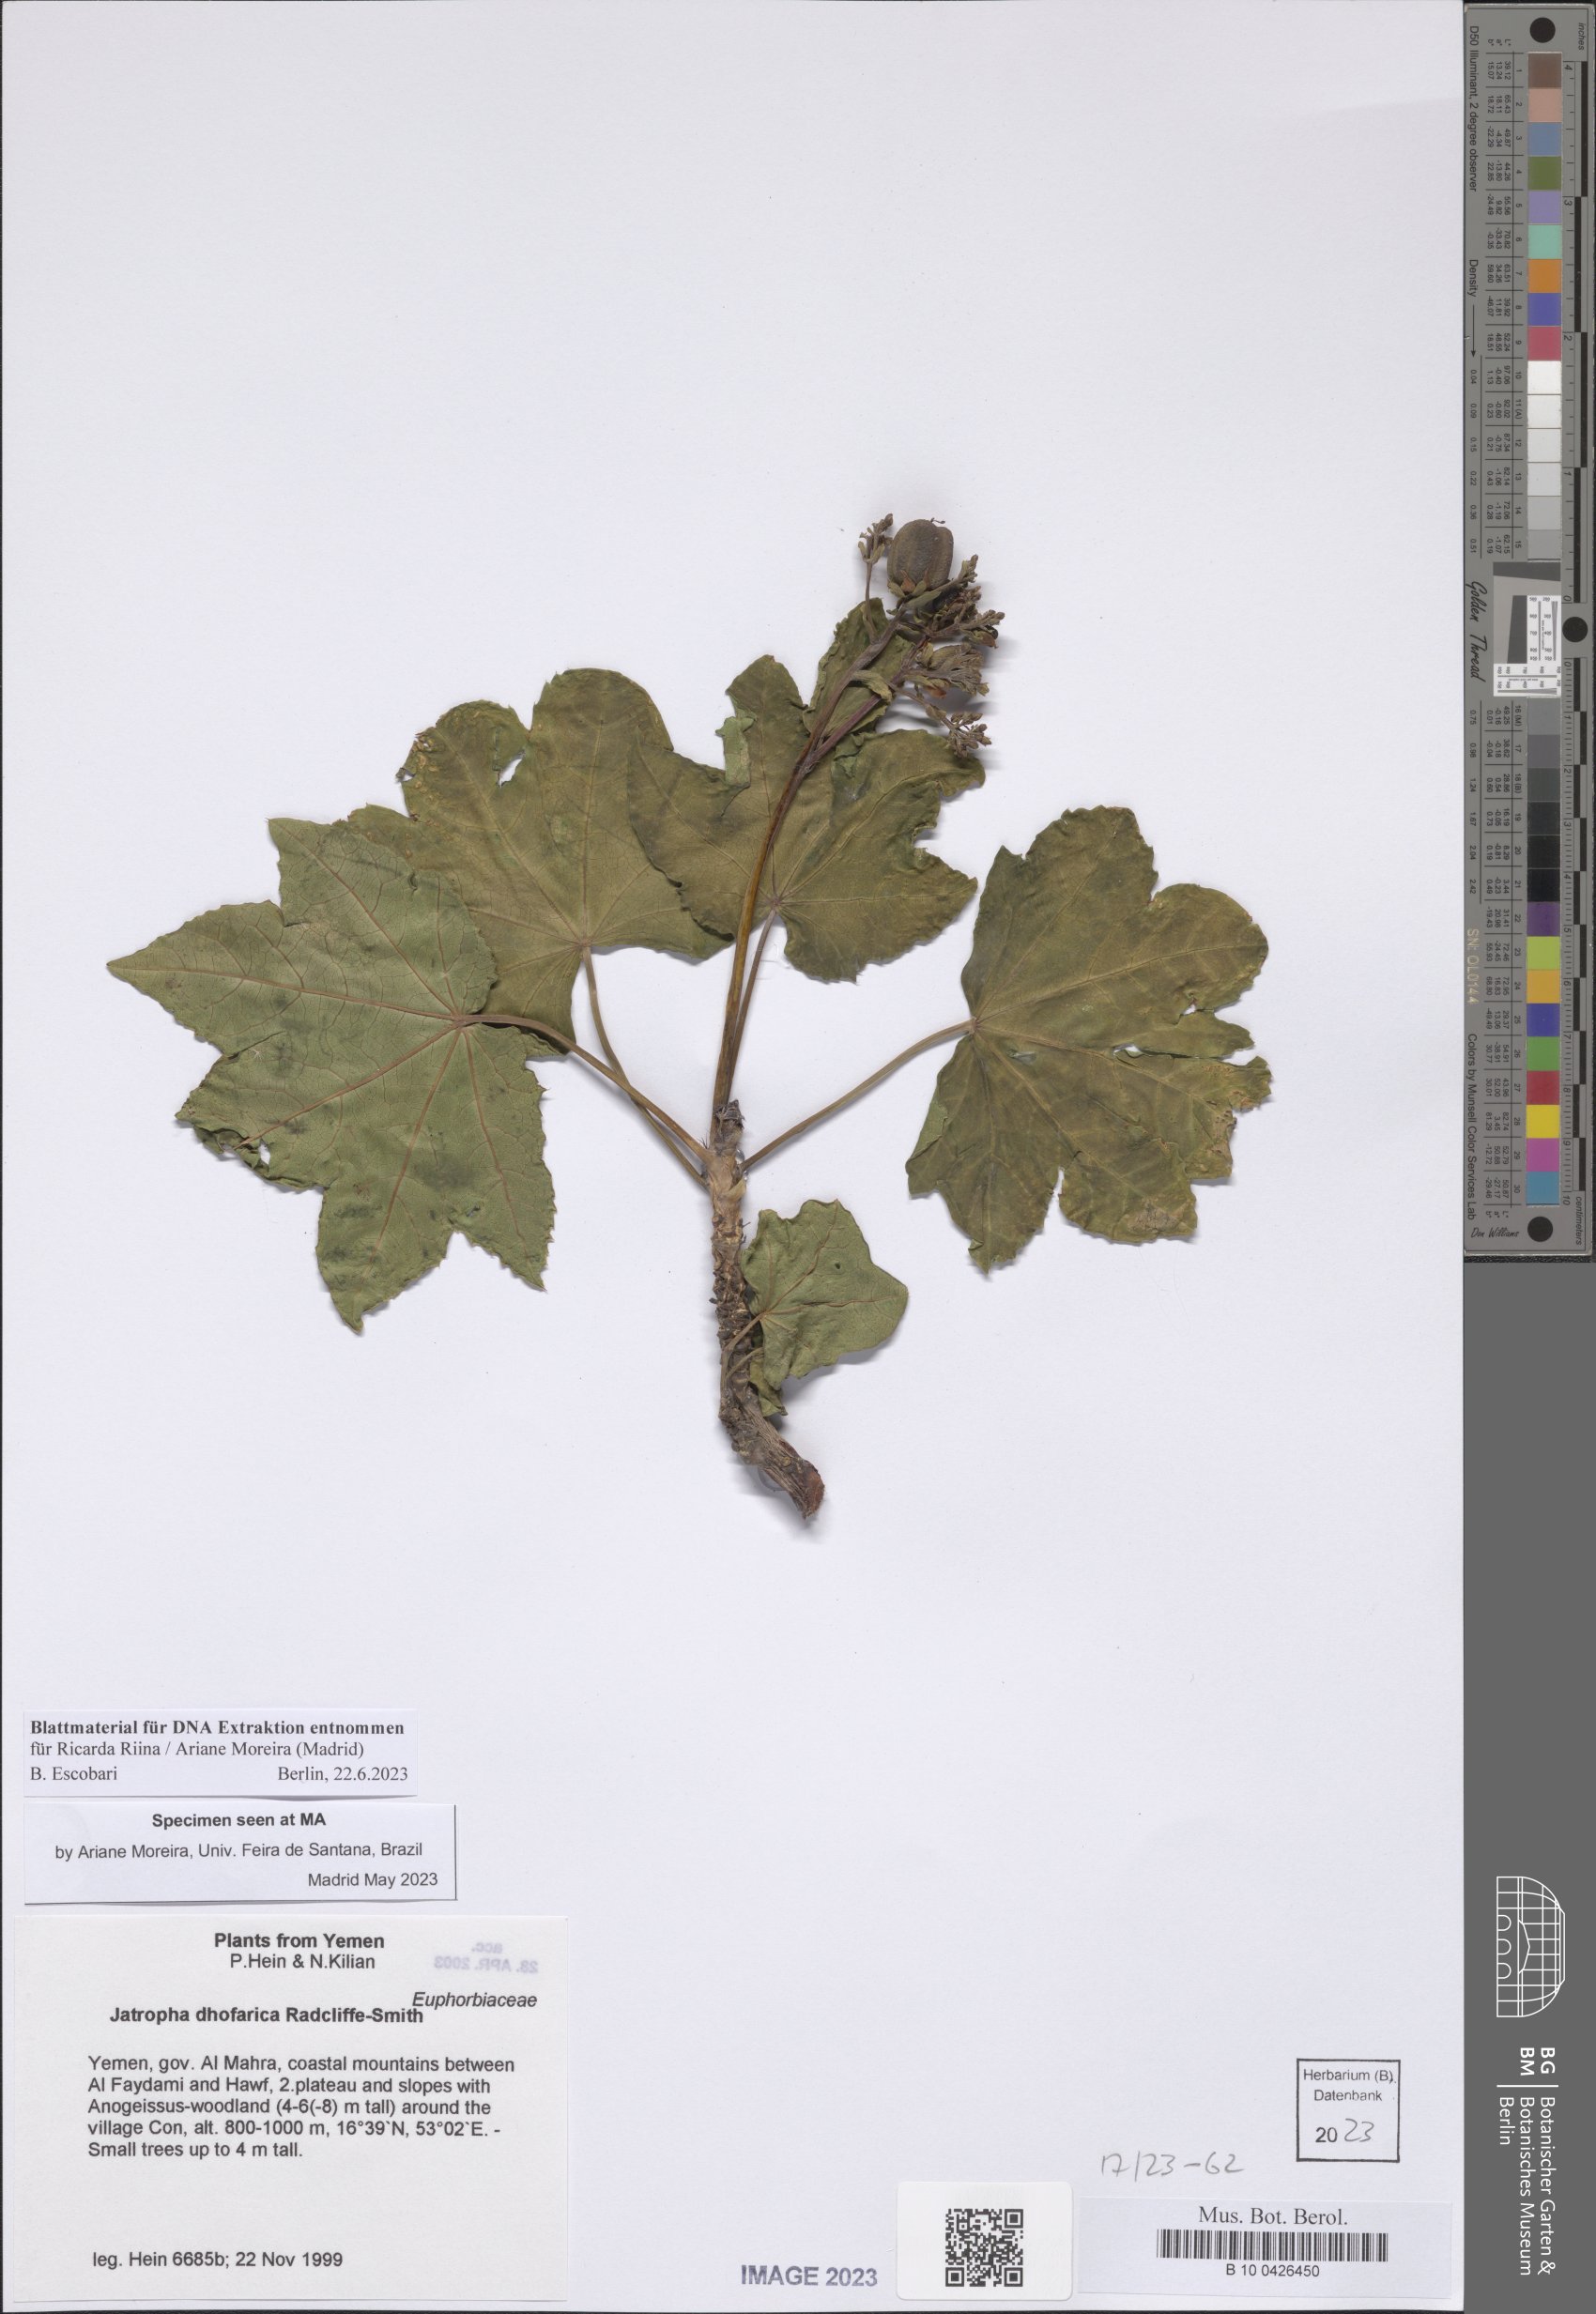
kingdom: Plantae
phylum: Tracheophyta
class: Magnoliopsida
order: Malpighiales
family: Euphorbiaceae
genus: Jatropha
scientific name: Jatropha dhofarica
